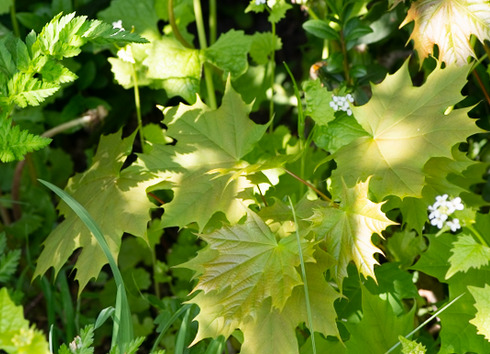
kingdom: Plantae
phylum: Tracheophyta
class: Magnoliopsida
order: Sapindales
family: Sapindaceae
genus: Acer
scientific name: Acer platanoides
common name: Spids-løn
